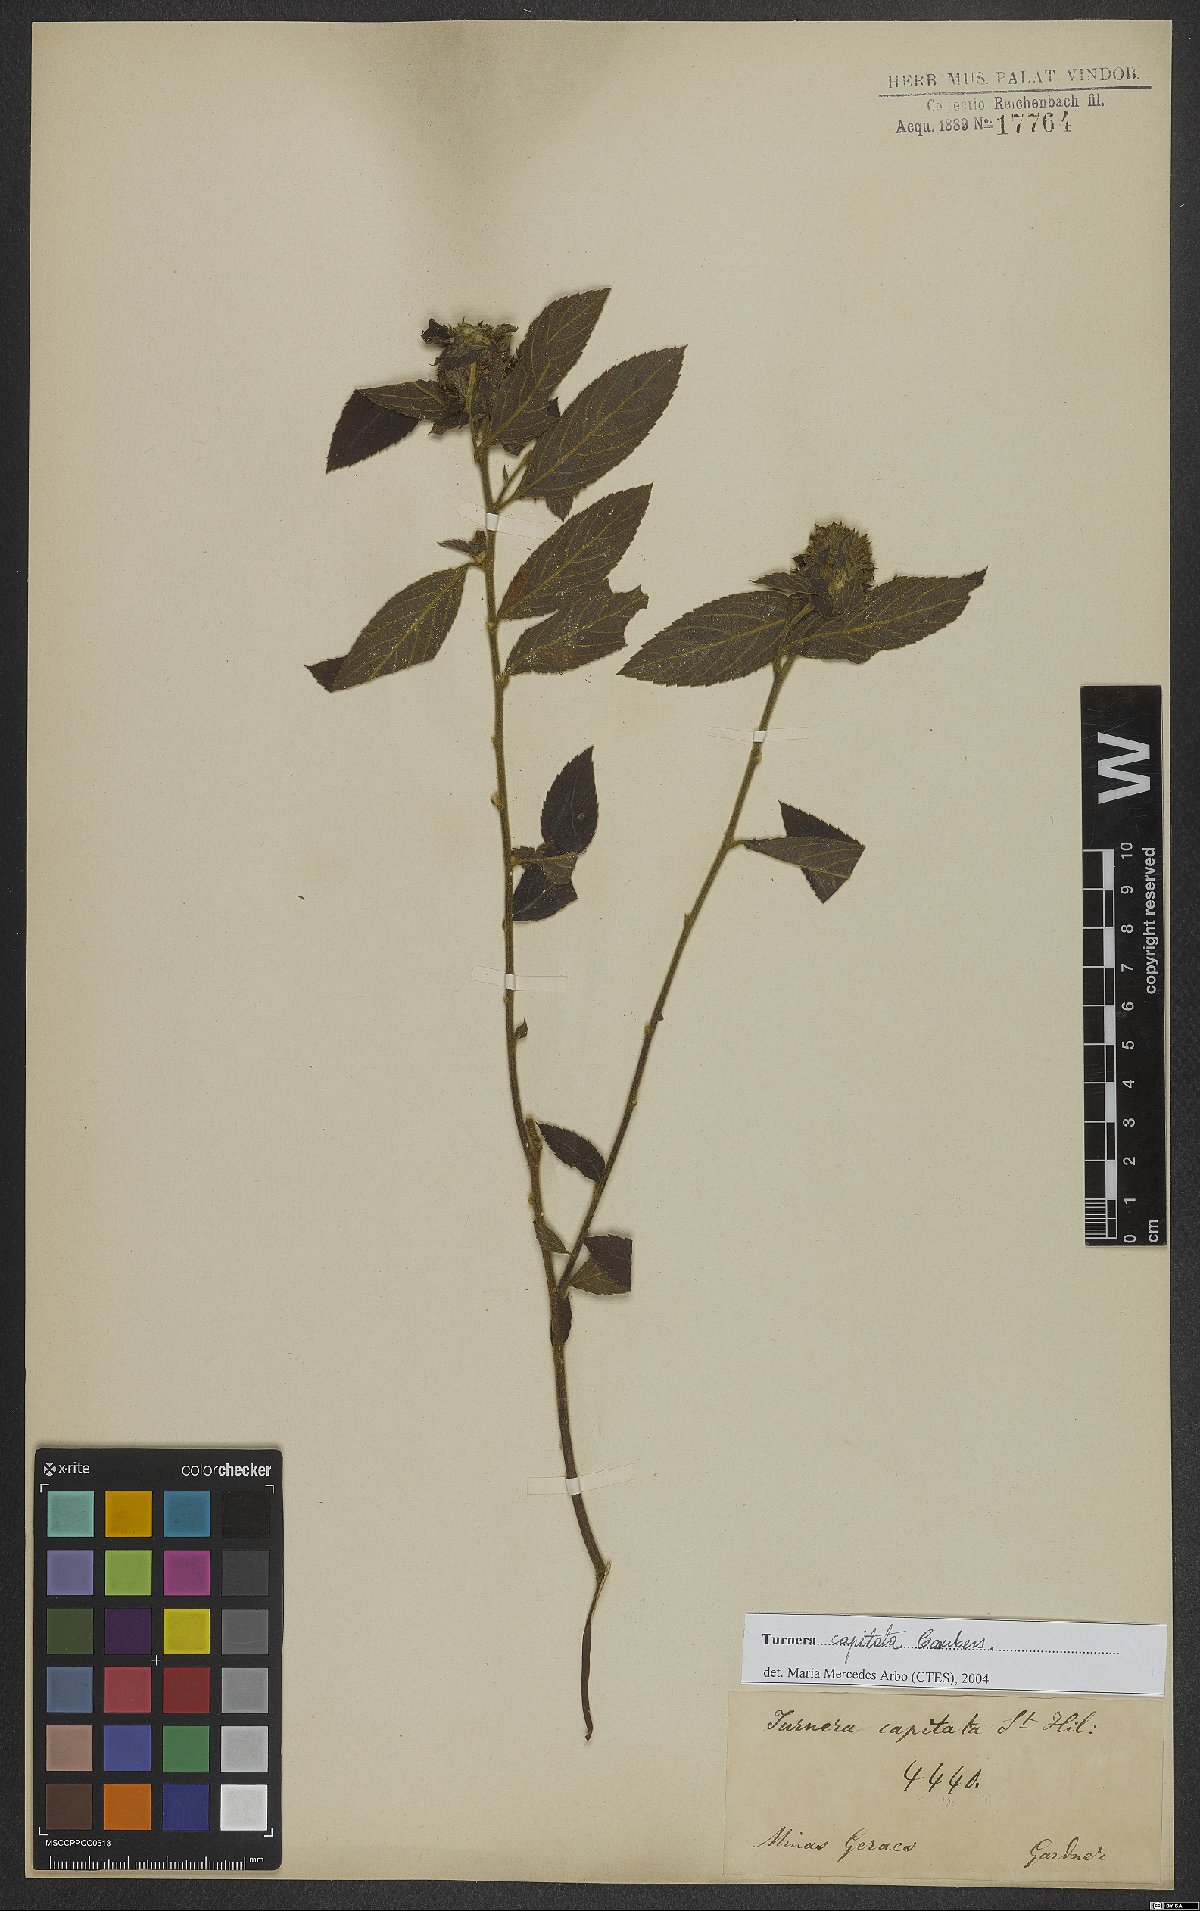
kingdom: Plantae
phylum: Tracheophyta
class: Magnoliopsida
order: Malpighiales
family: Turneraceae
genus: Oxossia
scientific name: Oxossia capitata
